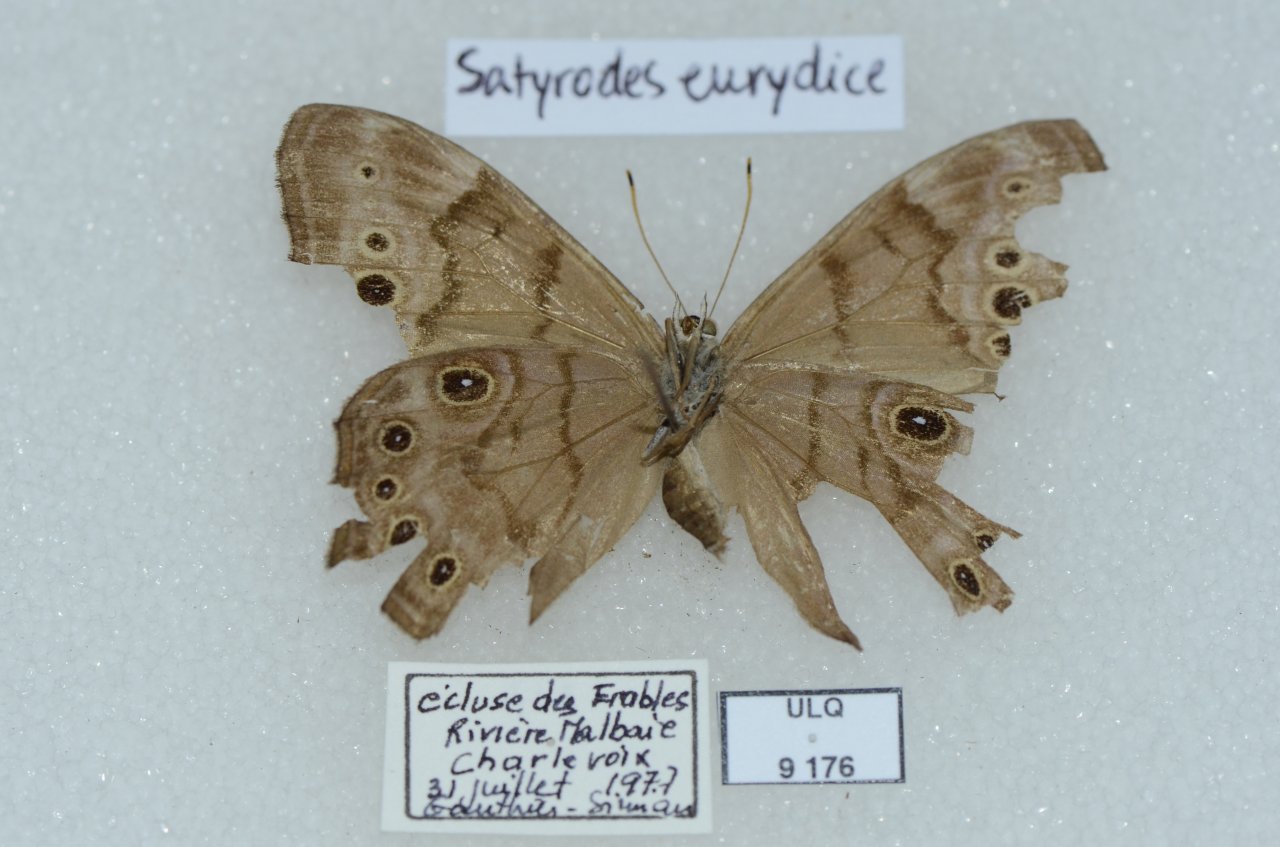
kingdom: Animalia
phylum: Arthropoda
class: Insecta
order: Lepidoptera
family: Nymphalidae
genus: Lethe
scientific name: Lethe anthedon
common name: Northern Pearly-Eye
